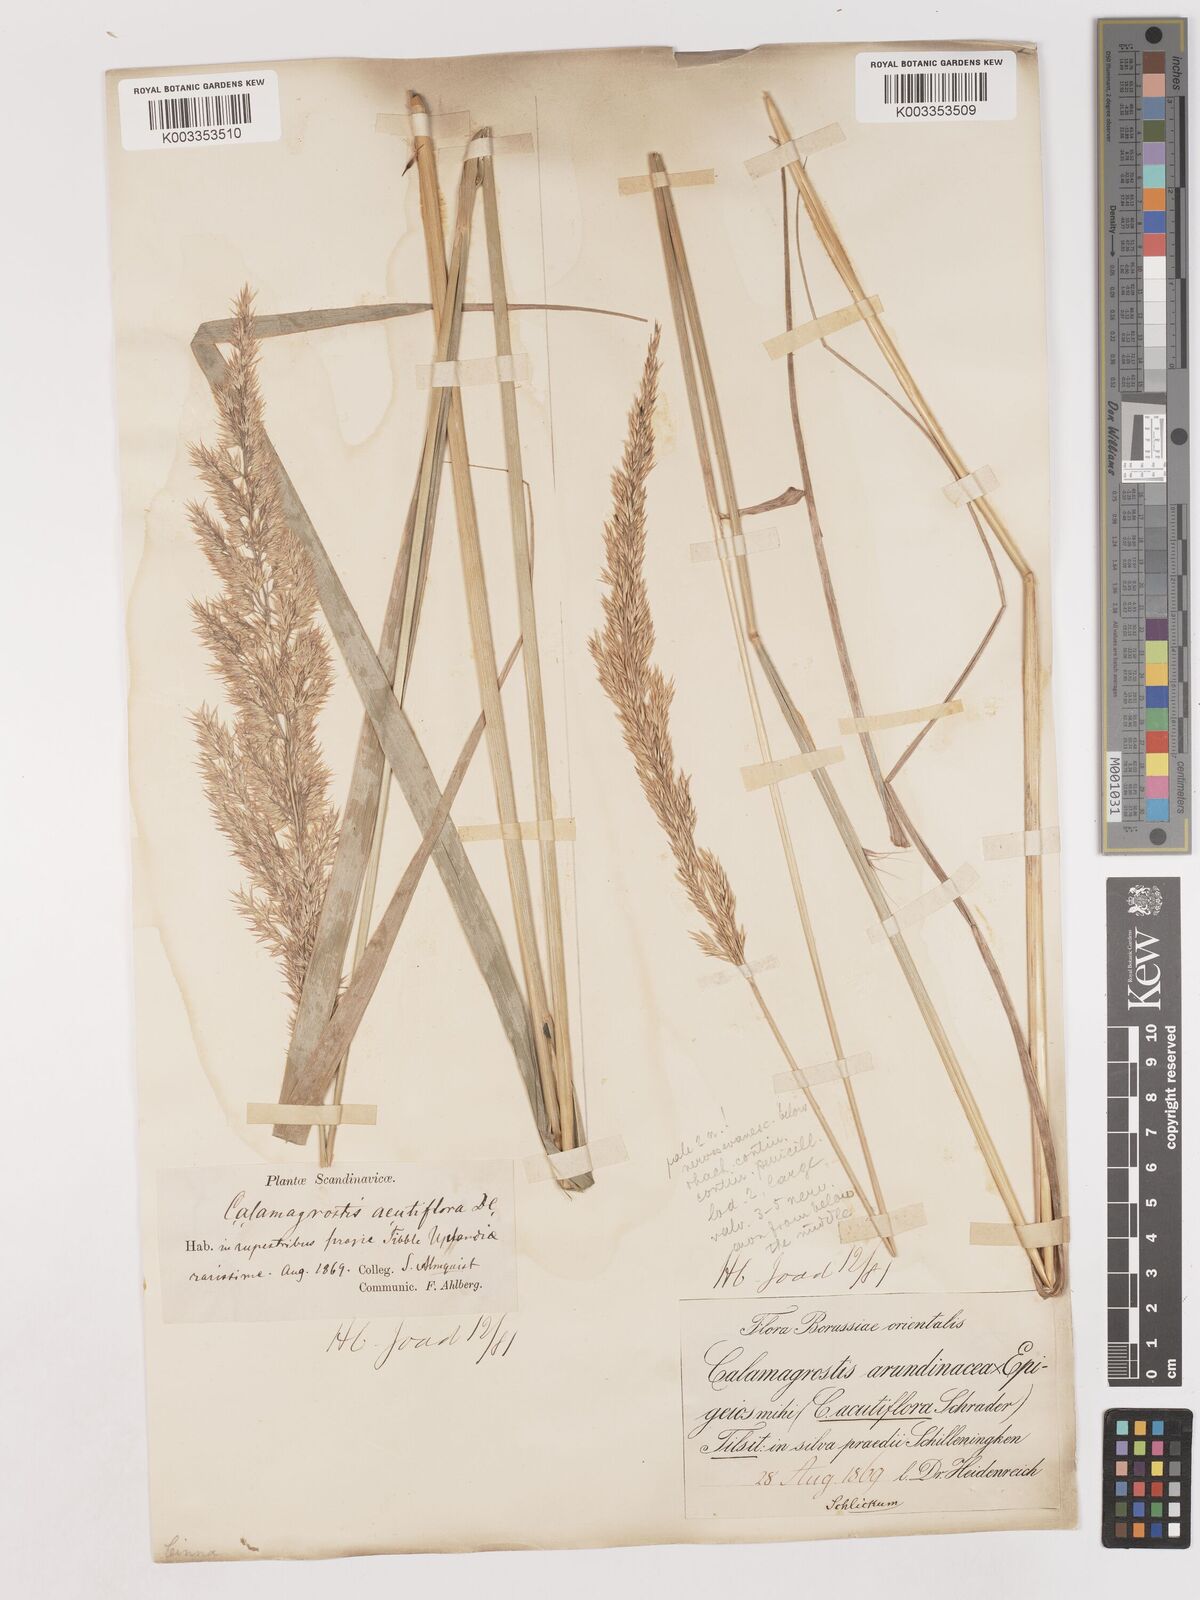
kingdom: Plantae
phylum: Tracheophyta
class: Liliopsida
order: Poales
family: Poaceae
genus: Calamagrostis
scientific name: Calamagrostis
